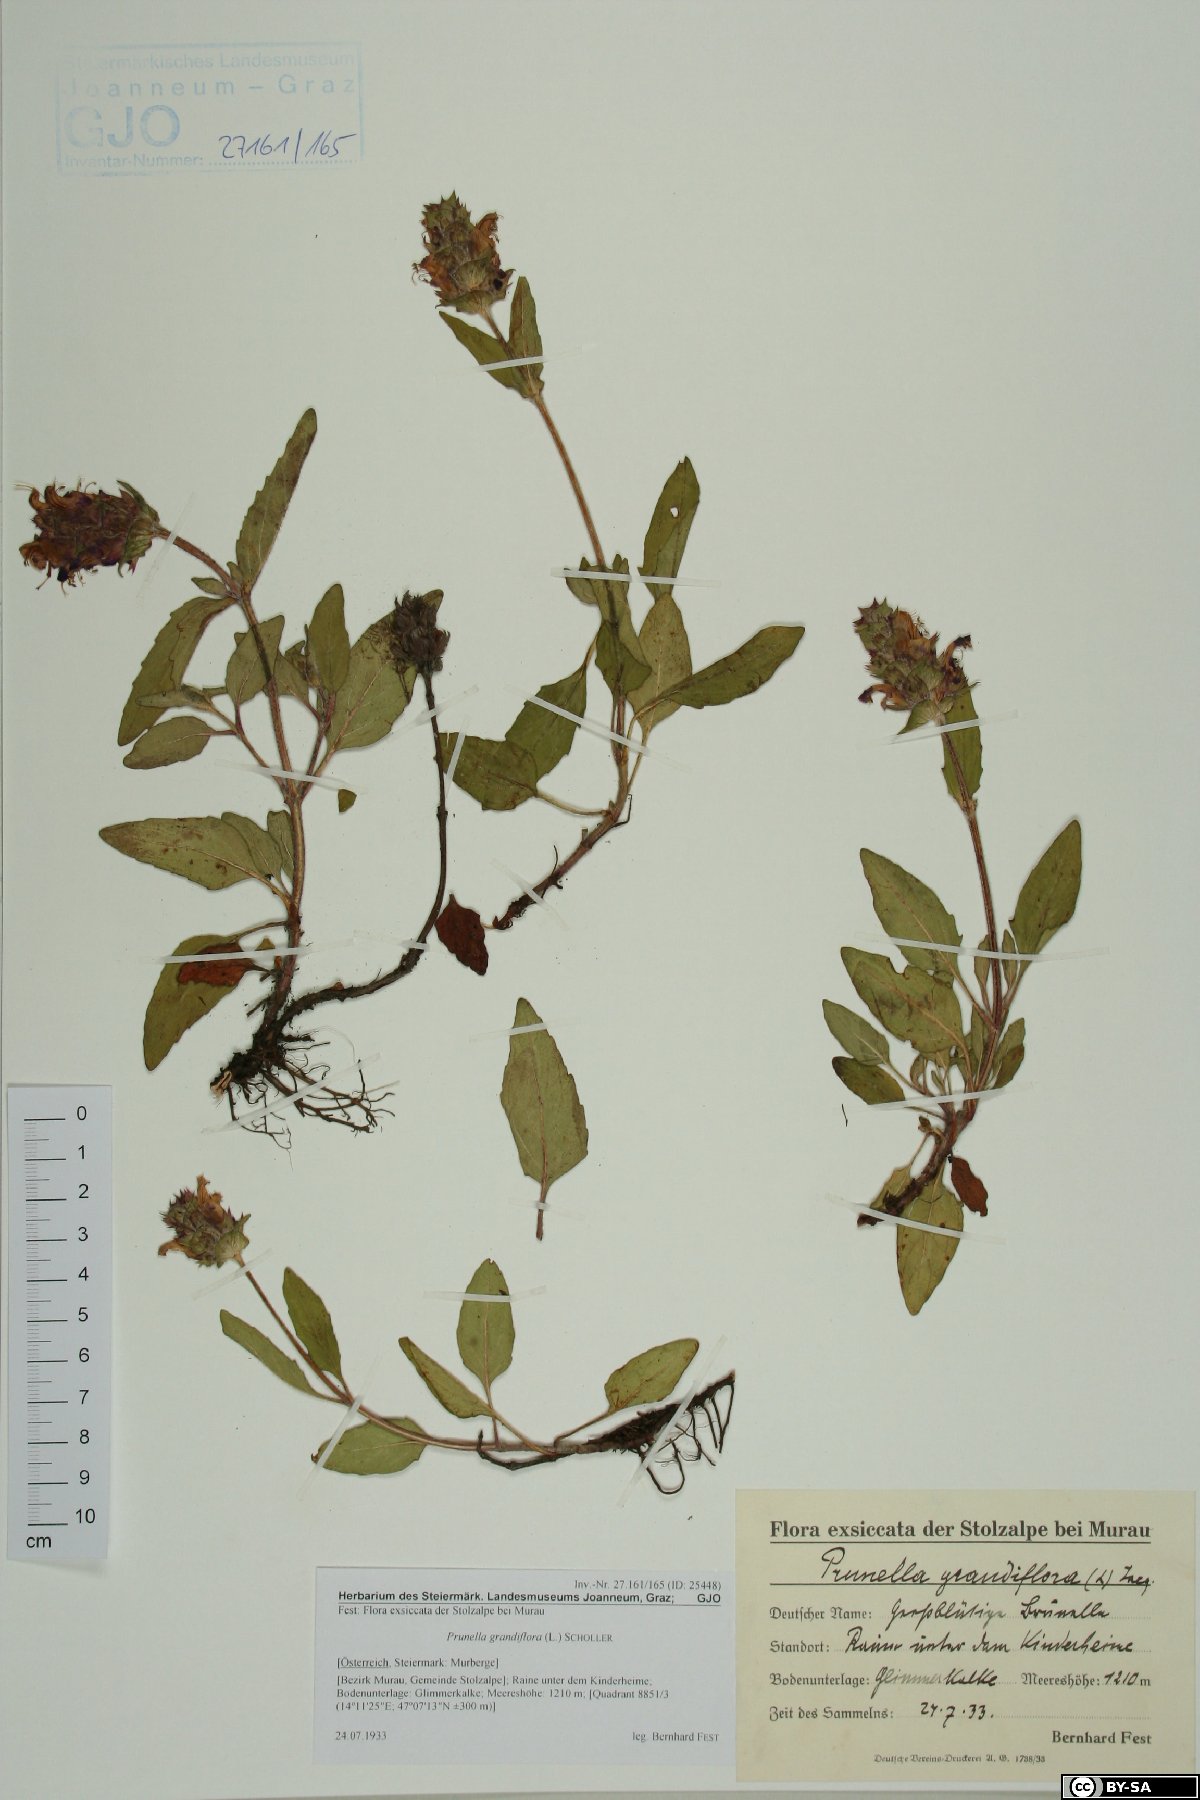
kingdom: Plantae
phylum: Tracheophyta
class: Magnoliopsida
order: Lamiales
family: Lamiaceae
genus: Prunella
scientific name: Prunella grandiflora
